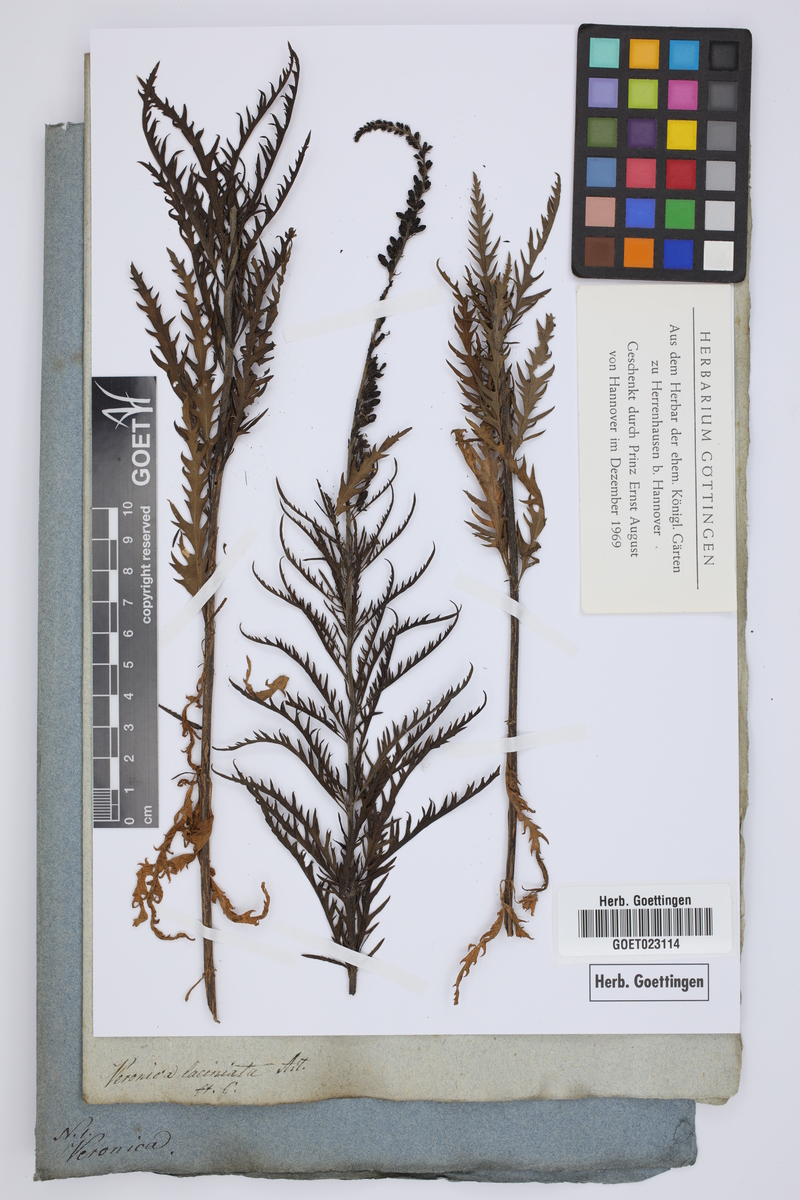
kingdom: Plantae
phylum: Tracheophyta
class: Magnoliopsida
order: Lamiales
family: Plantaginaceae
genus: Veronica
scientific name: Veronica spuria
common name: Bastard speedwell
